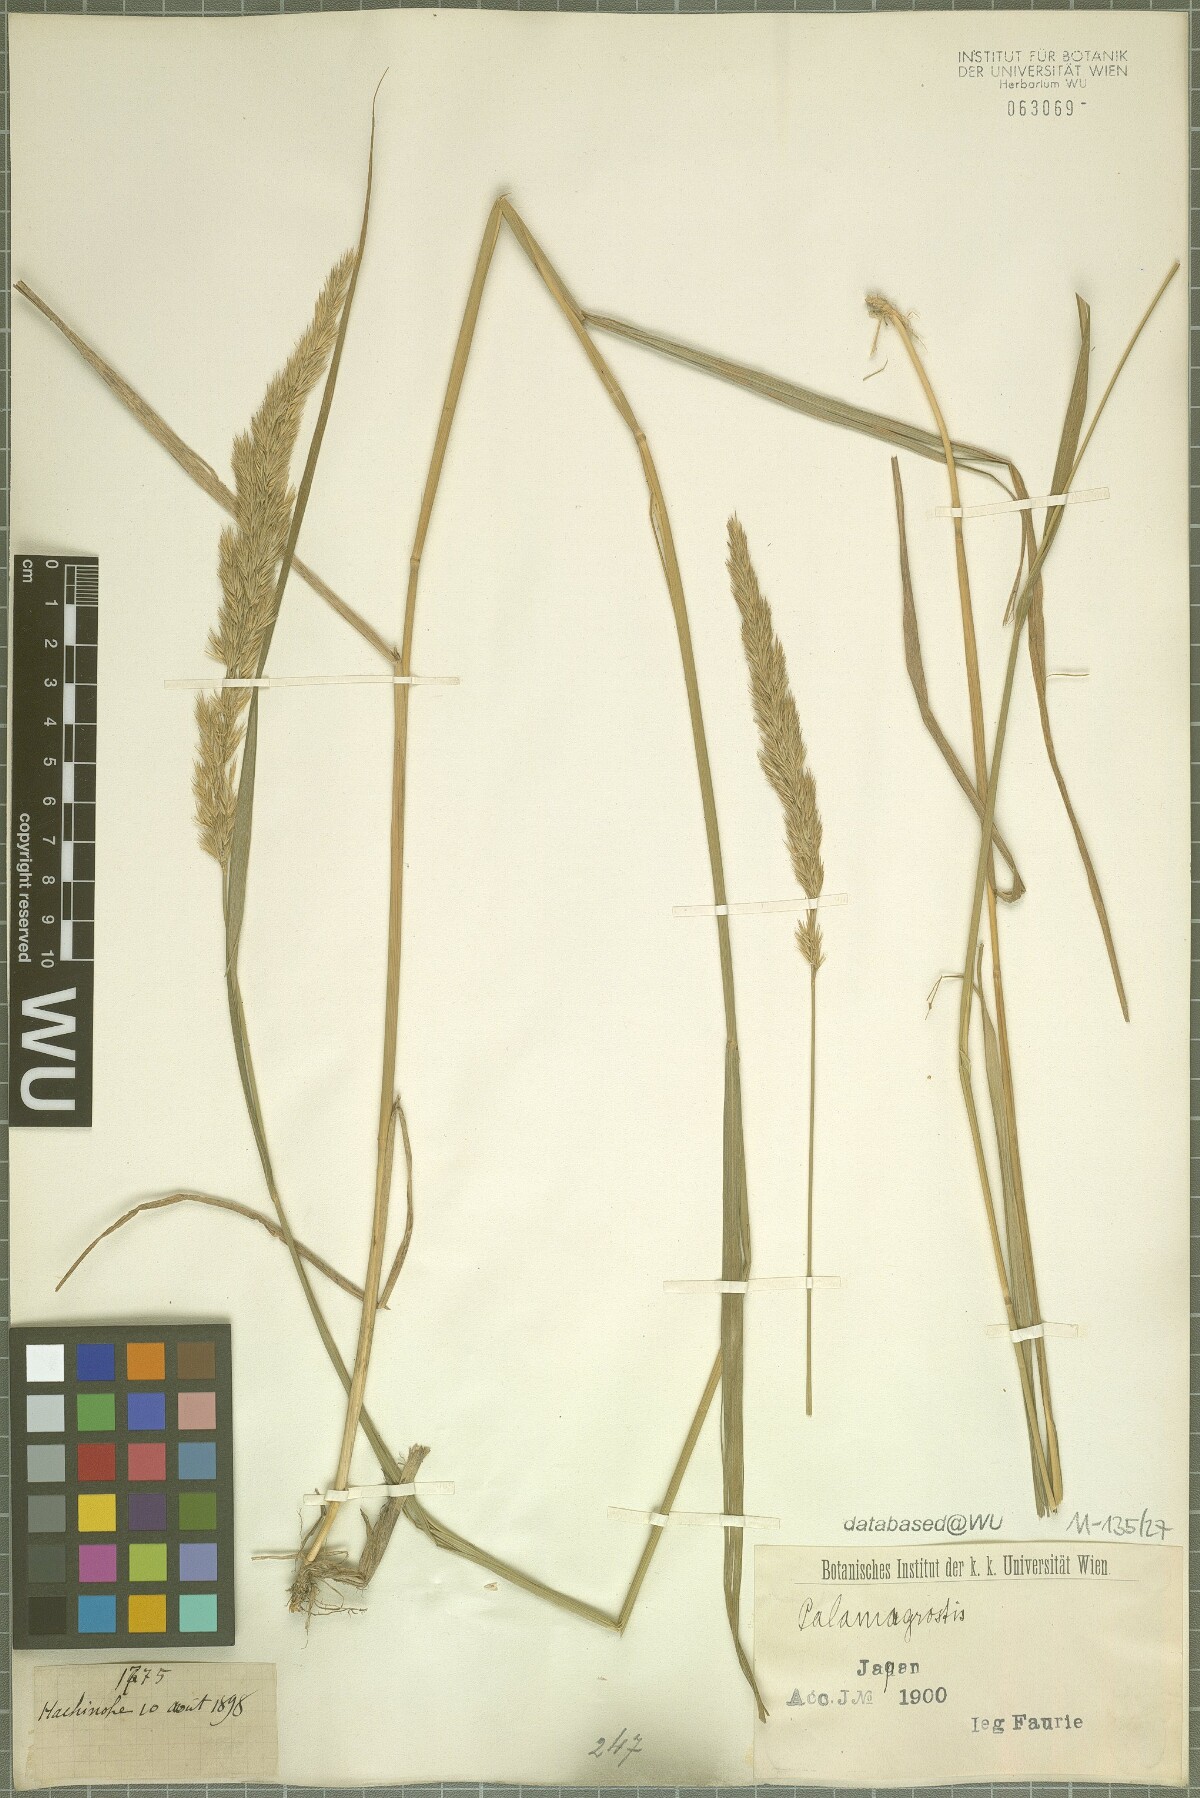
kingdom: Plantae
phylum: Tracheophyta
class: Liliopsida
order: Poales
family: Poaceae
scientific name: Poaceae
